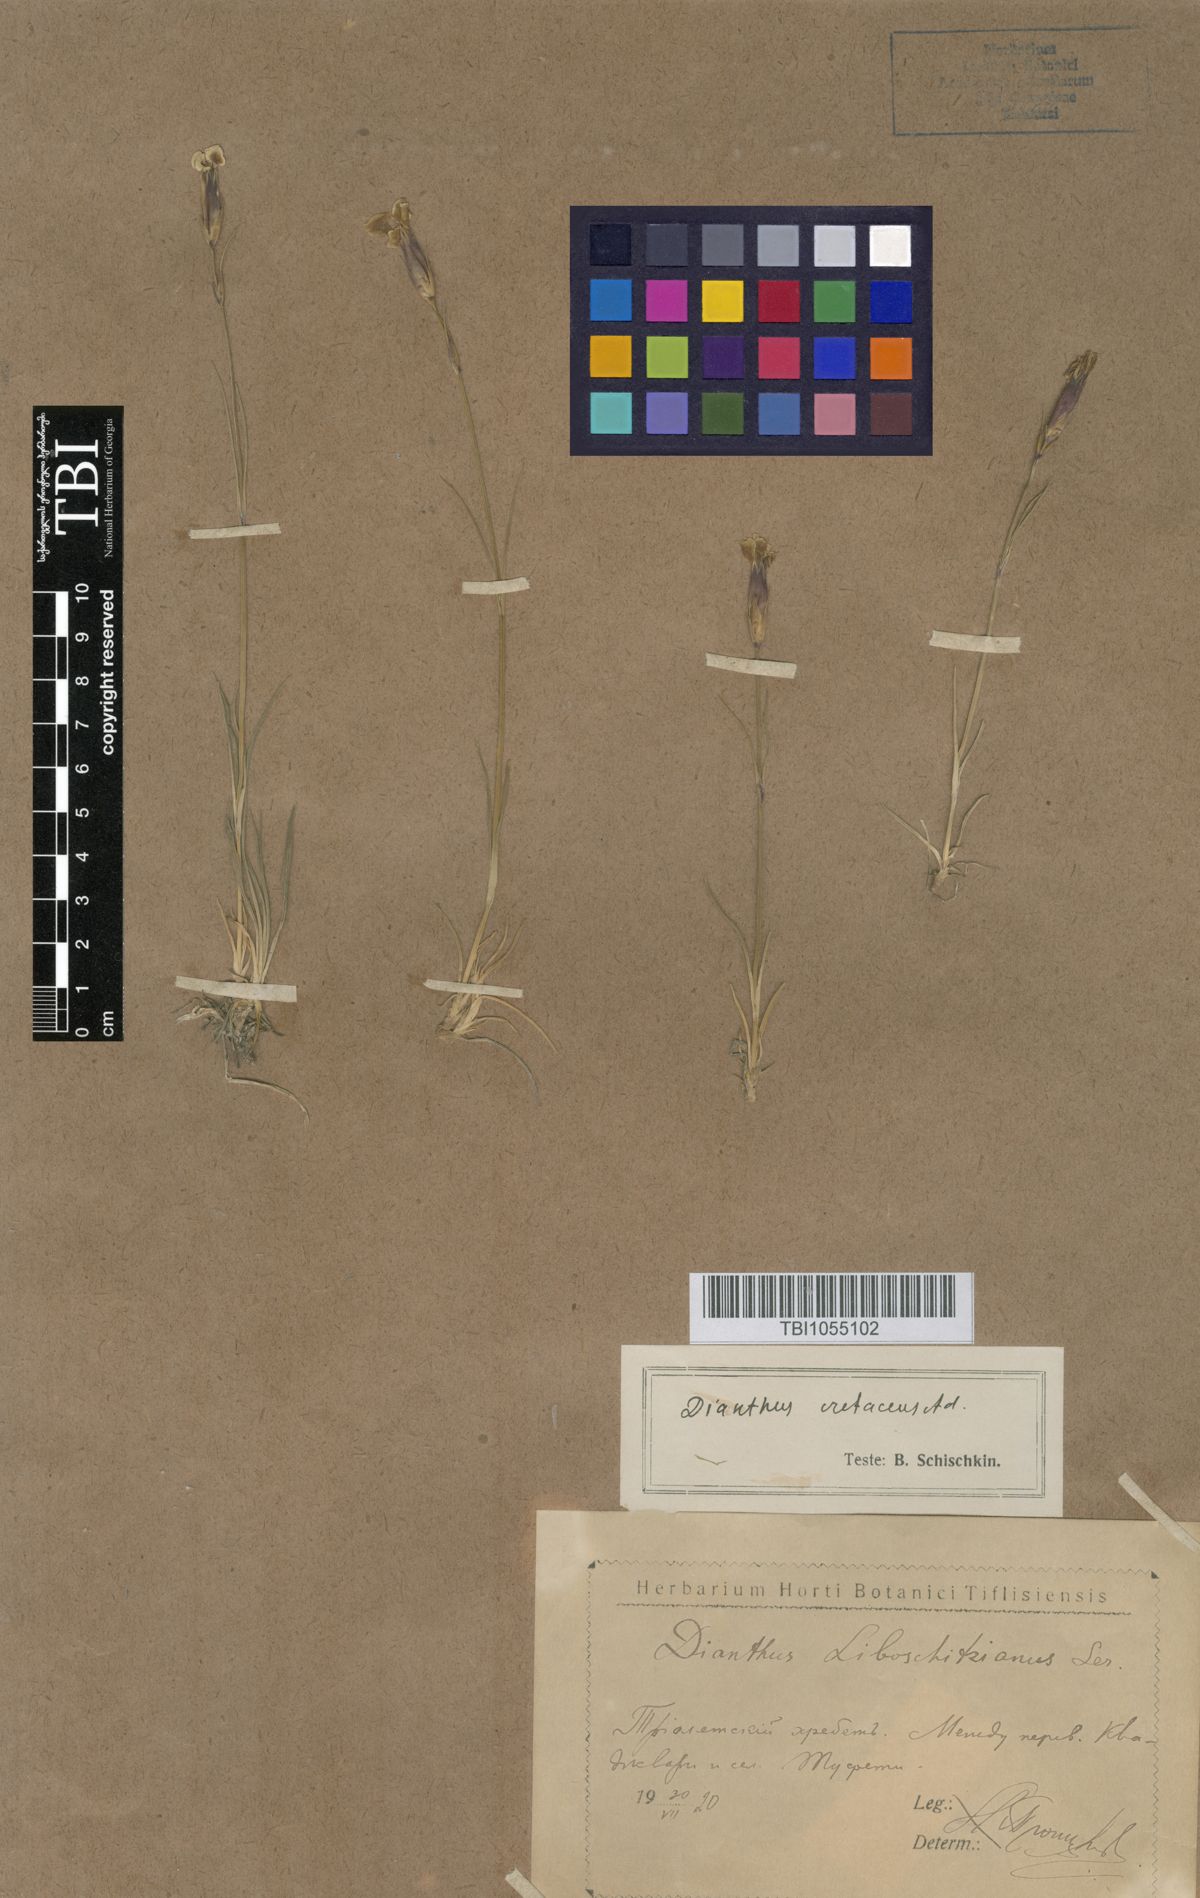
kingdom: Plantae
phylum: Tracheophyta
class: Magnoliopsida
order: Caryophyllales
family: Caryophyllaceae
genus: Dianthus
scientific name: Dianthus cretaceus
